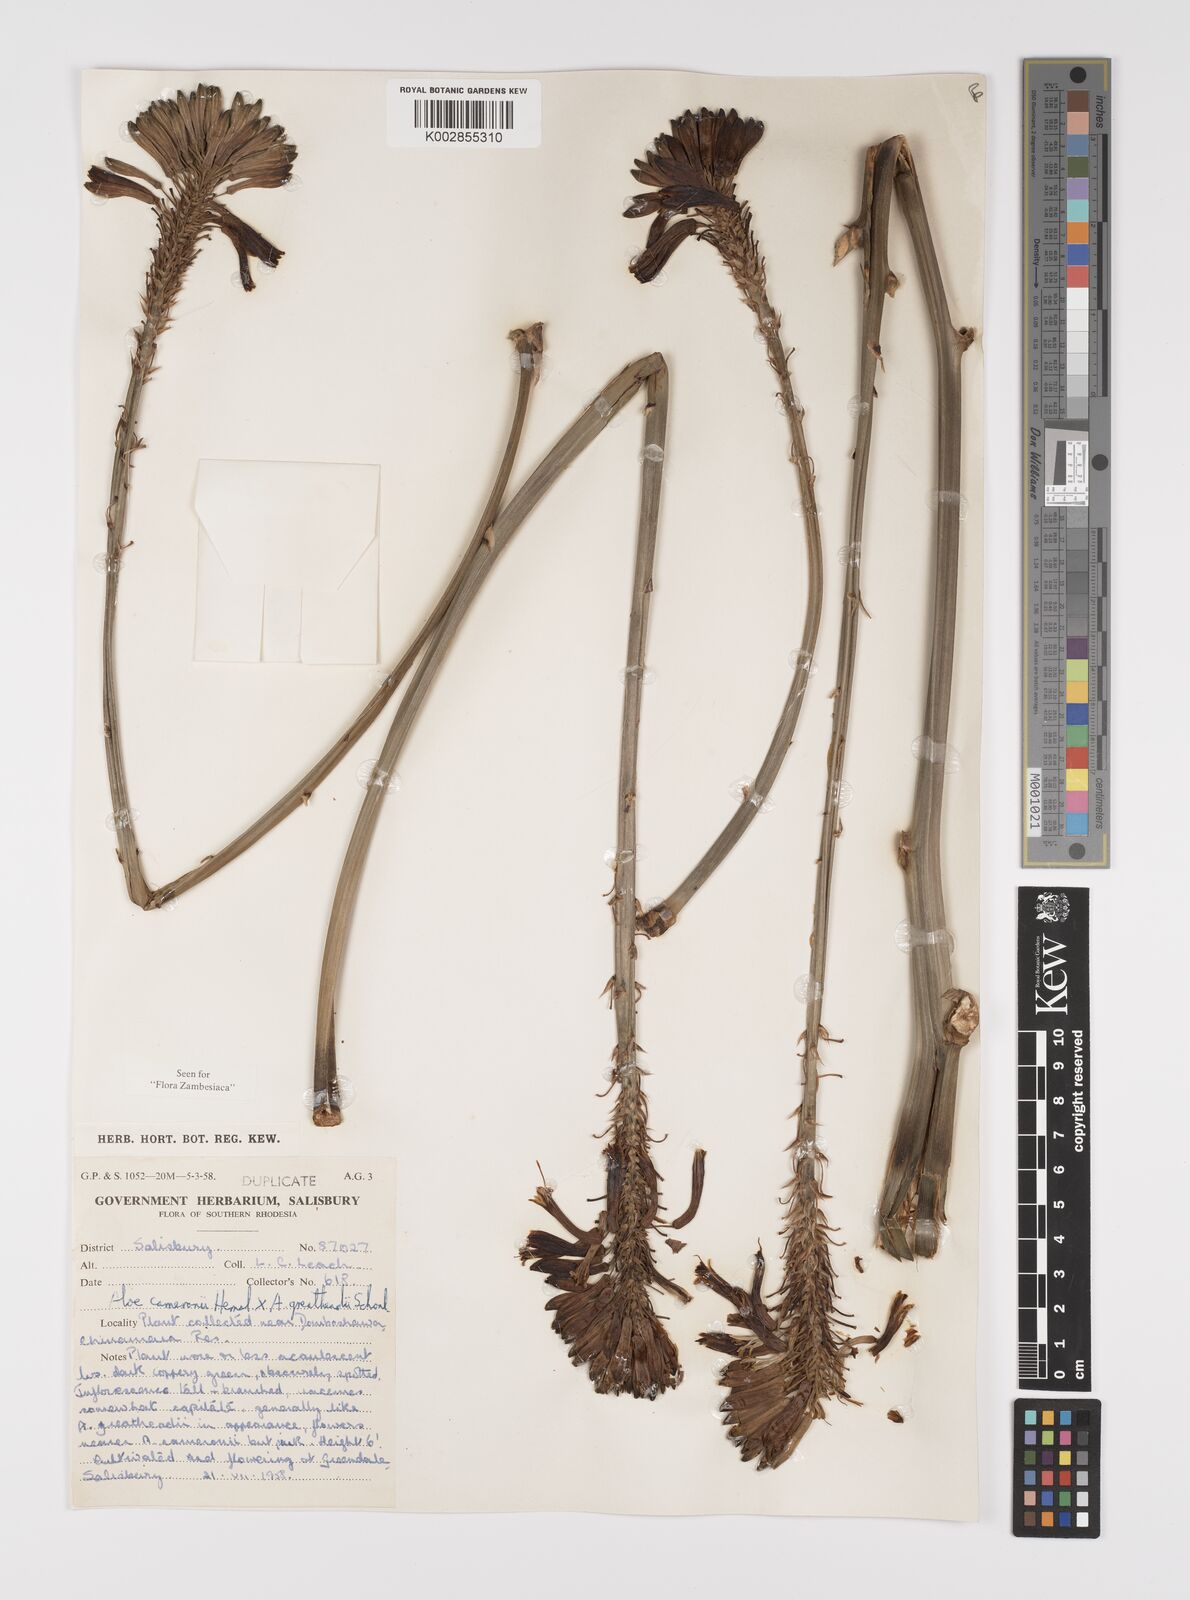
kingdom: Plantae
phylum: Tracheophyta
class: Liliopsida
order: Asparagales
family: Asphodelaceae
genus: Aloe
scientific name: Aloe cameronii
